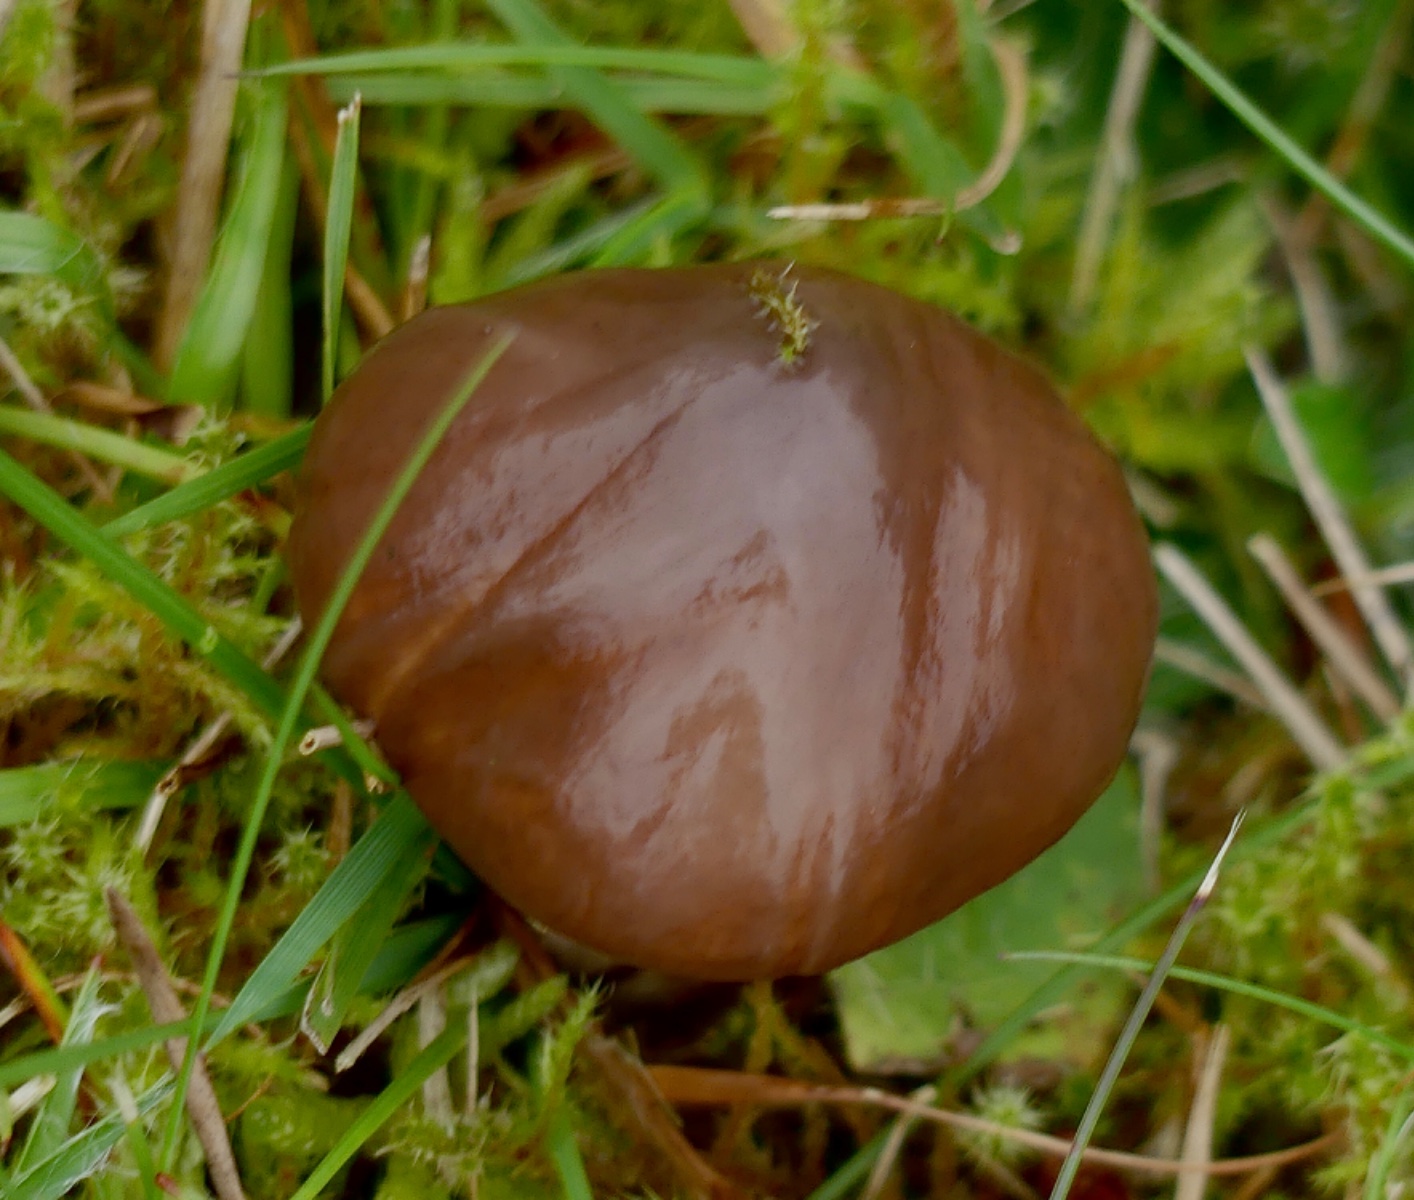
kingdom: Fungi
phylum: Basidiomycota
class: Agaricomycetes
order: Boletales
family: Suillaceae
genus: Suillus
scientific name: Suillus luteus
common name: brungul slimrørhat
